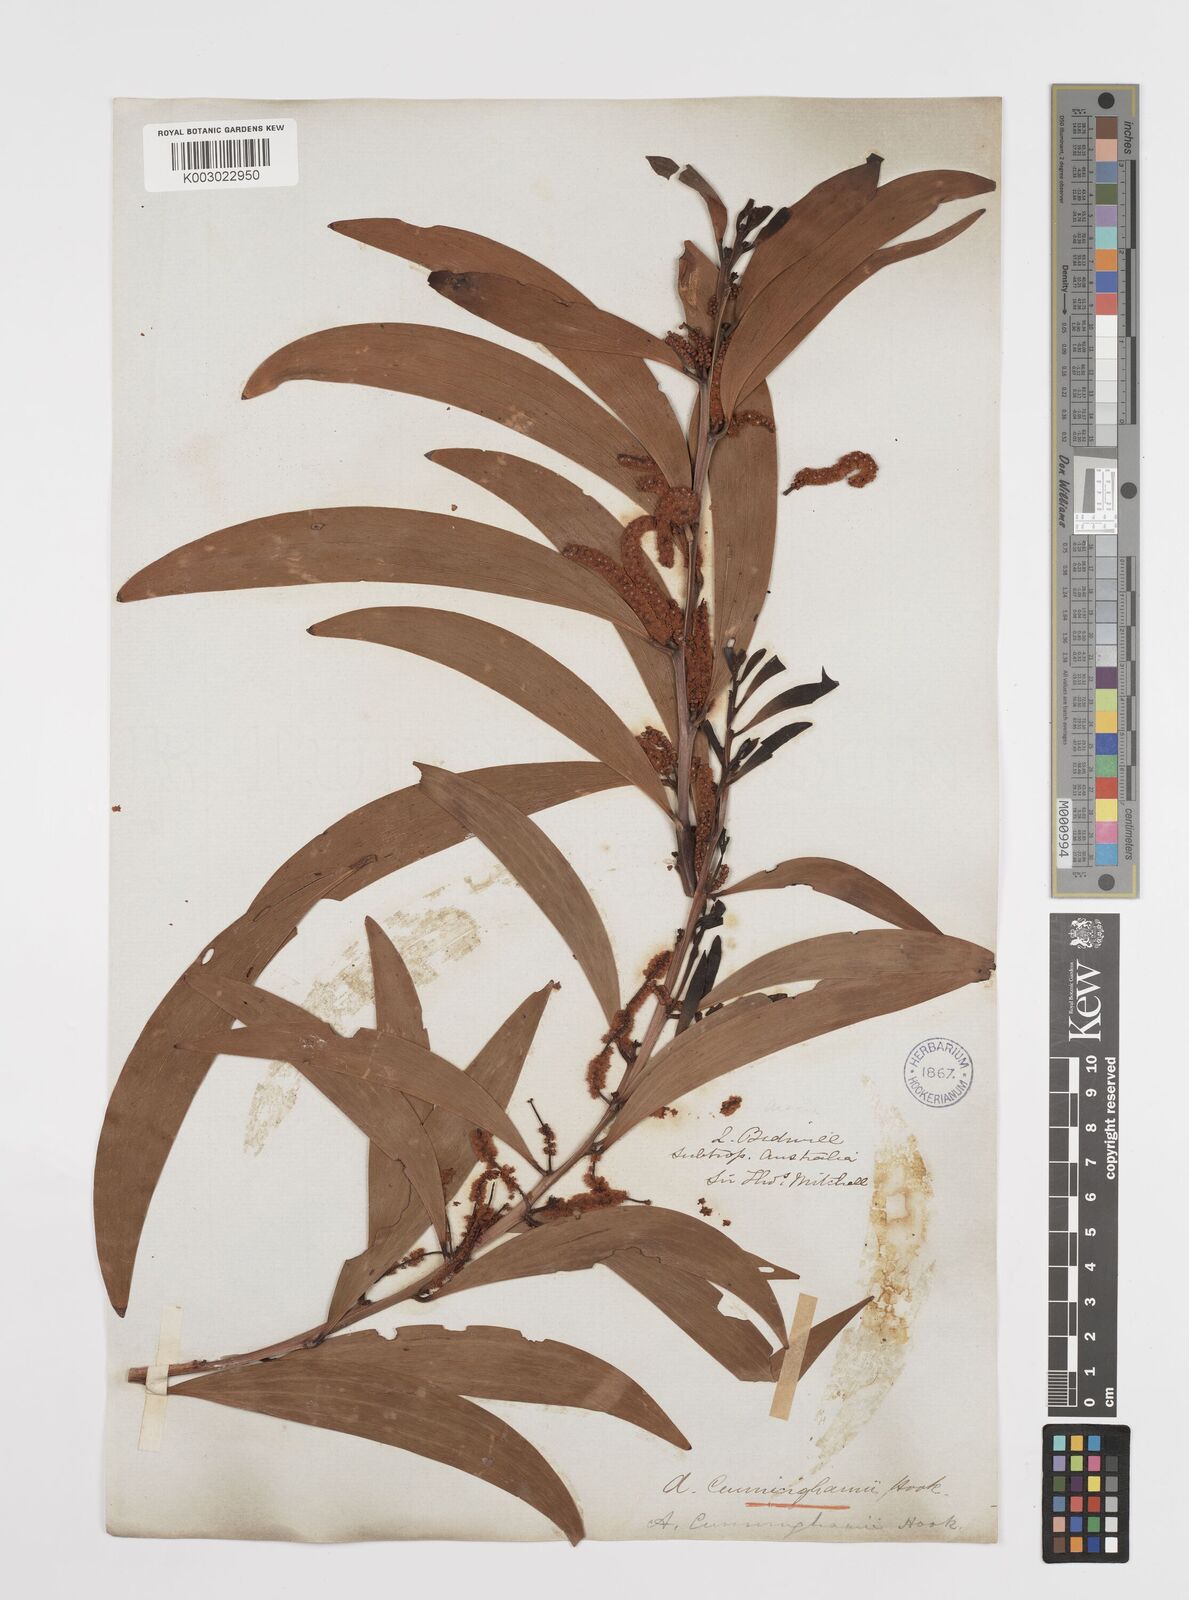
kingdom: Plantae
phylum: Tracheophyta
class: Magnoliopsida
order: Fabales
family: Fabaceae
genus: Acacia
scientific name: Acacia longispicata
